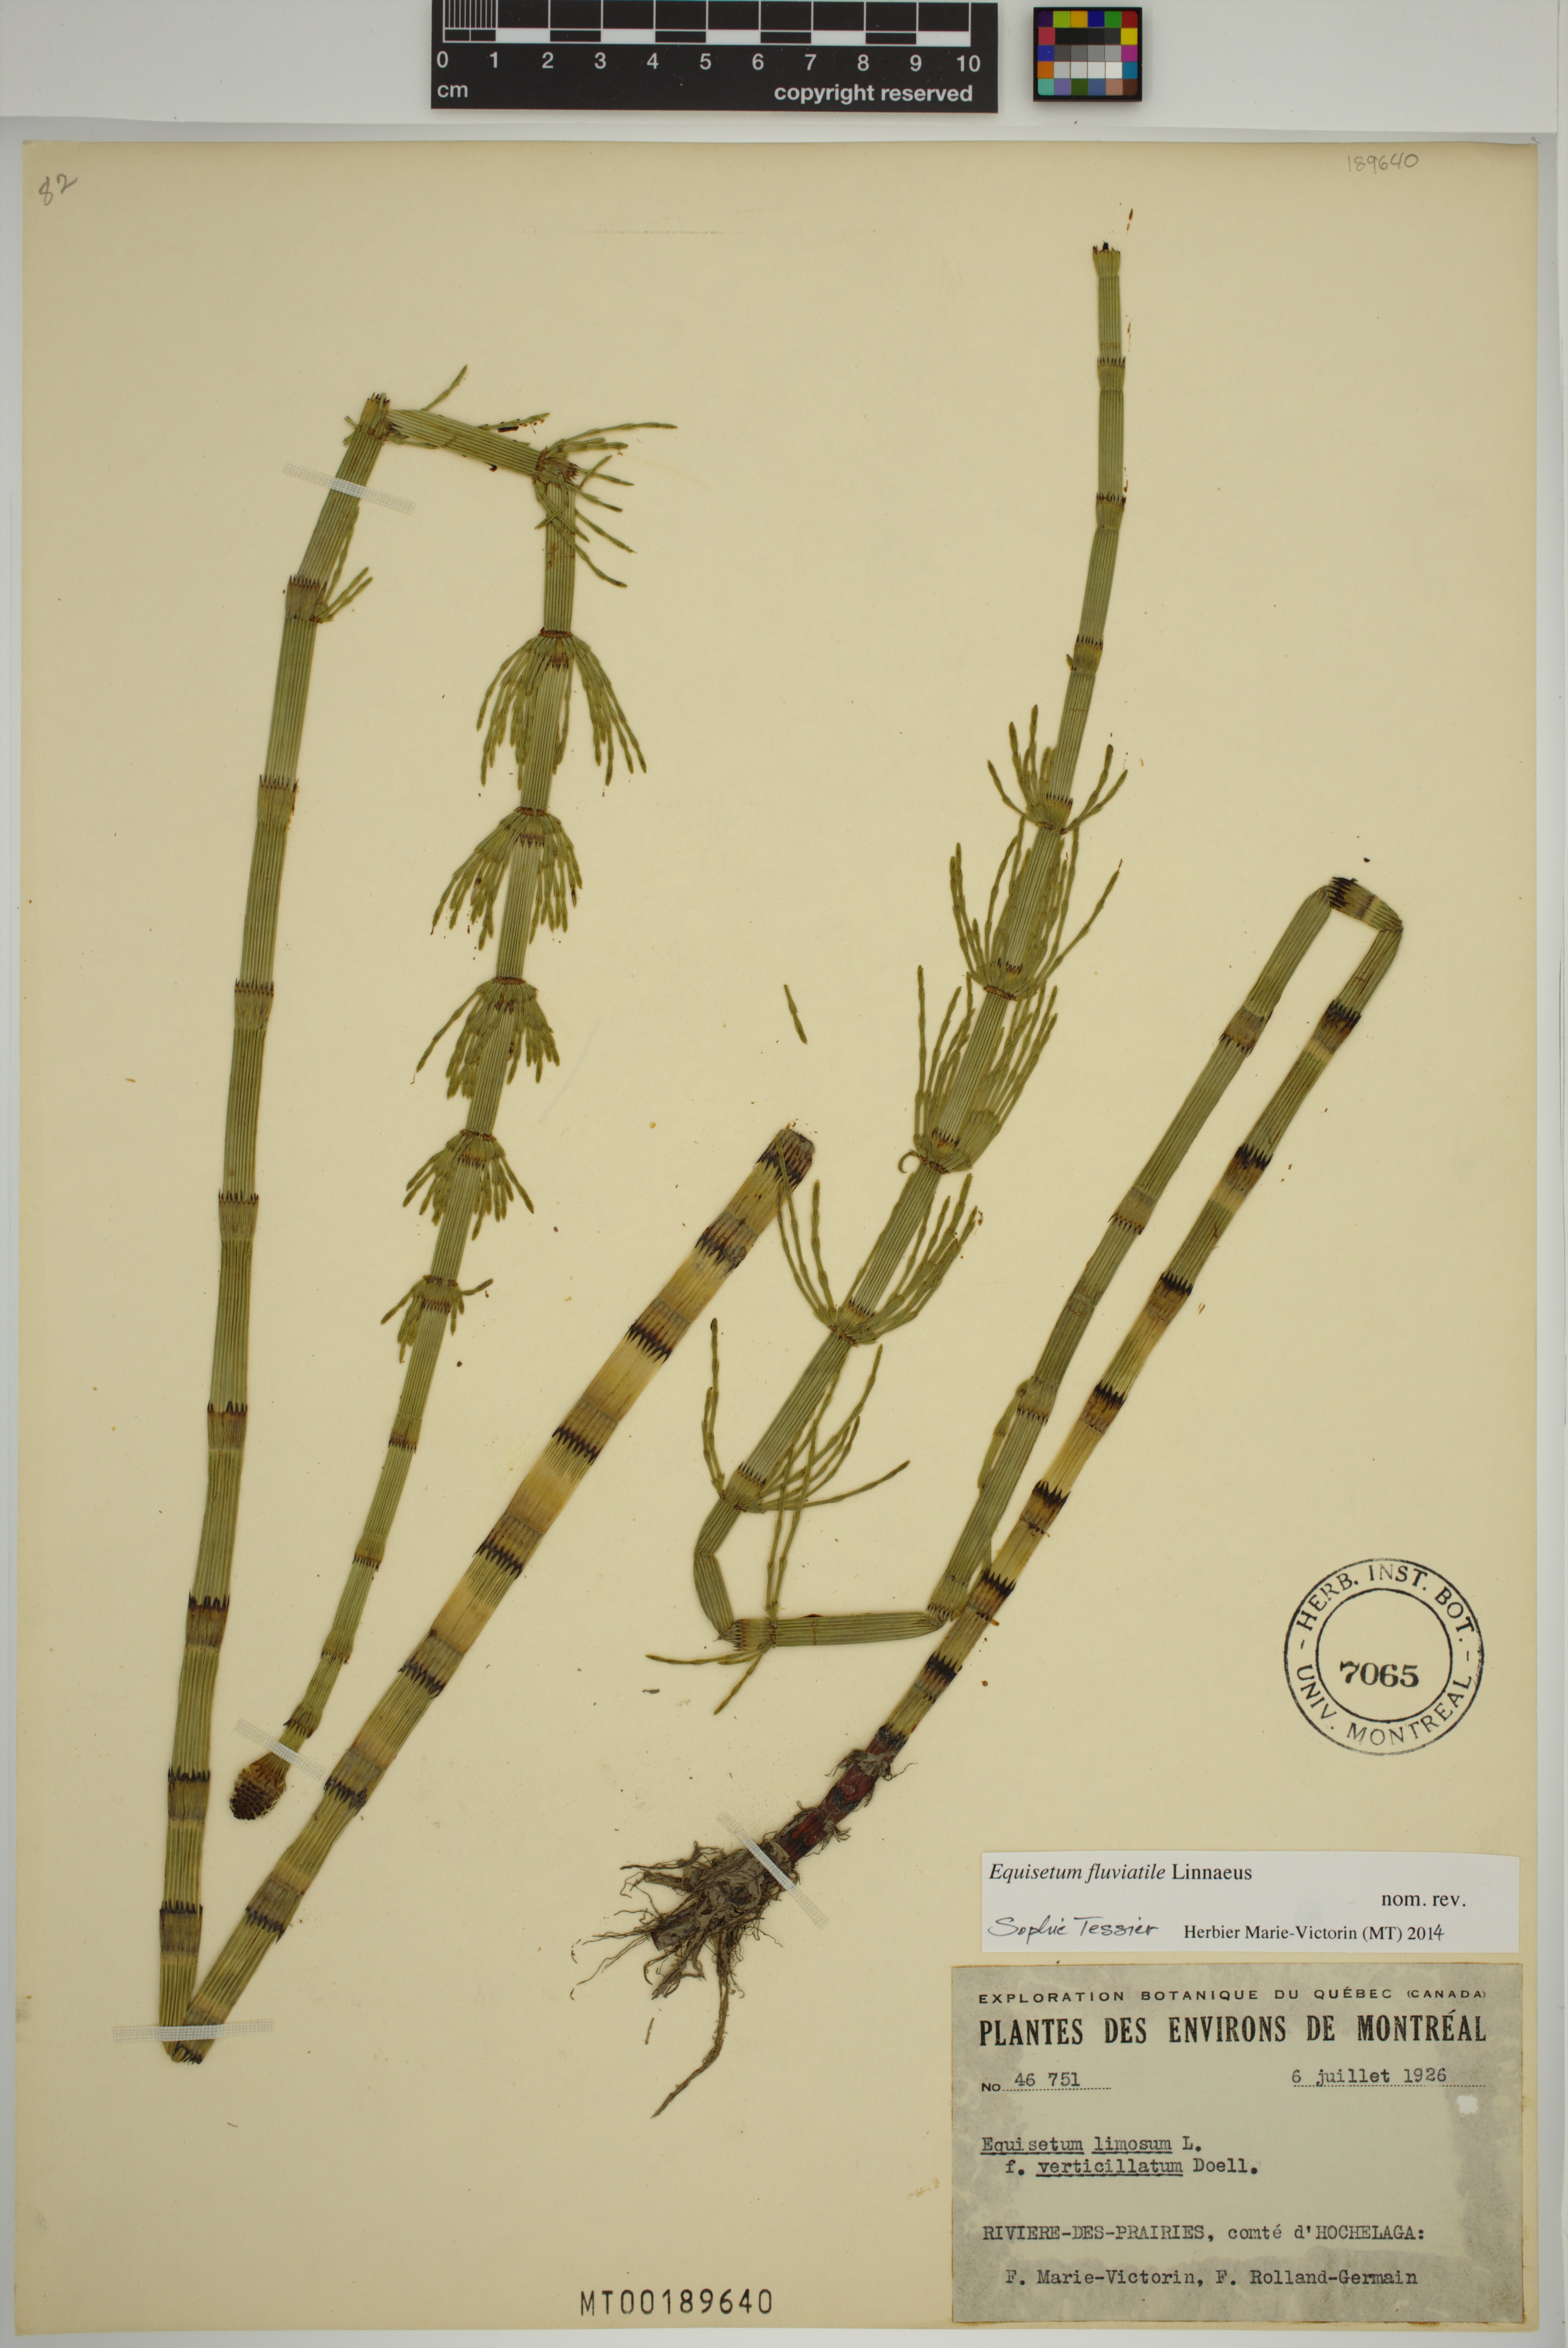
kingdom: Plantae
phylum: Tracheophyta
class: Polypodiopsida
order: Equisetales
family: Equisetaceae
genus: Equisetum
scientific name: Equisetum fluviatile
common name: Water horsetail
